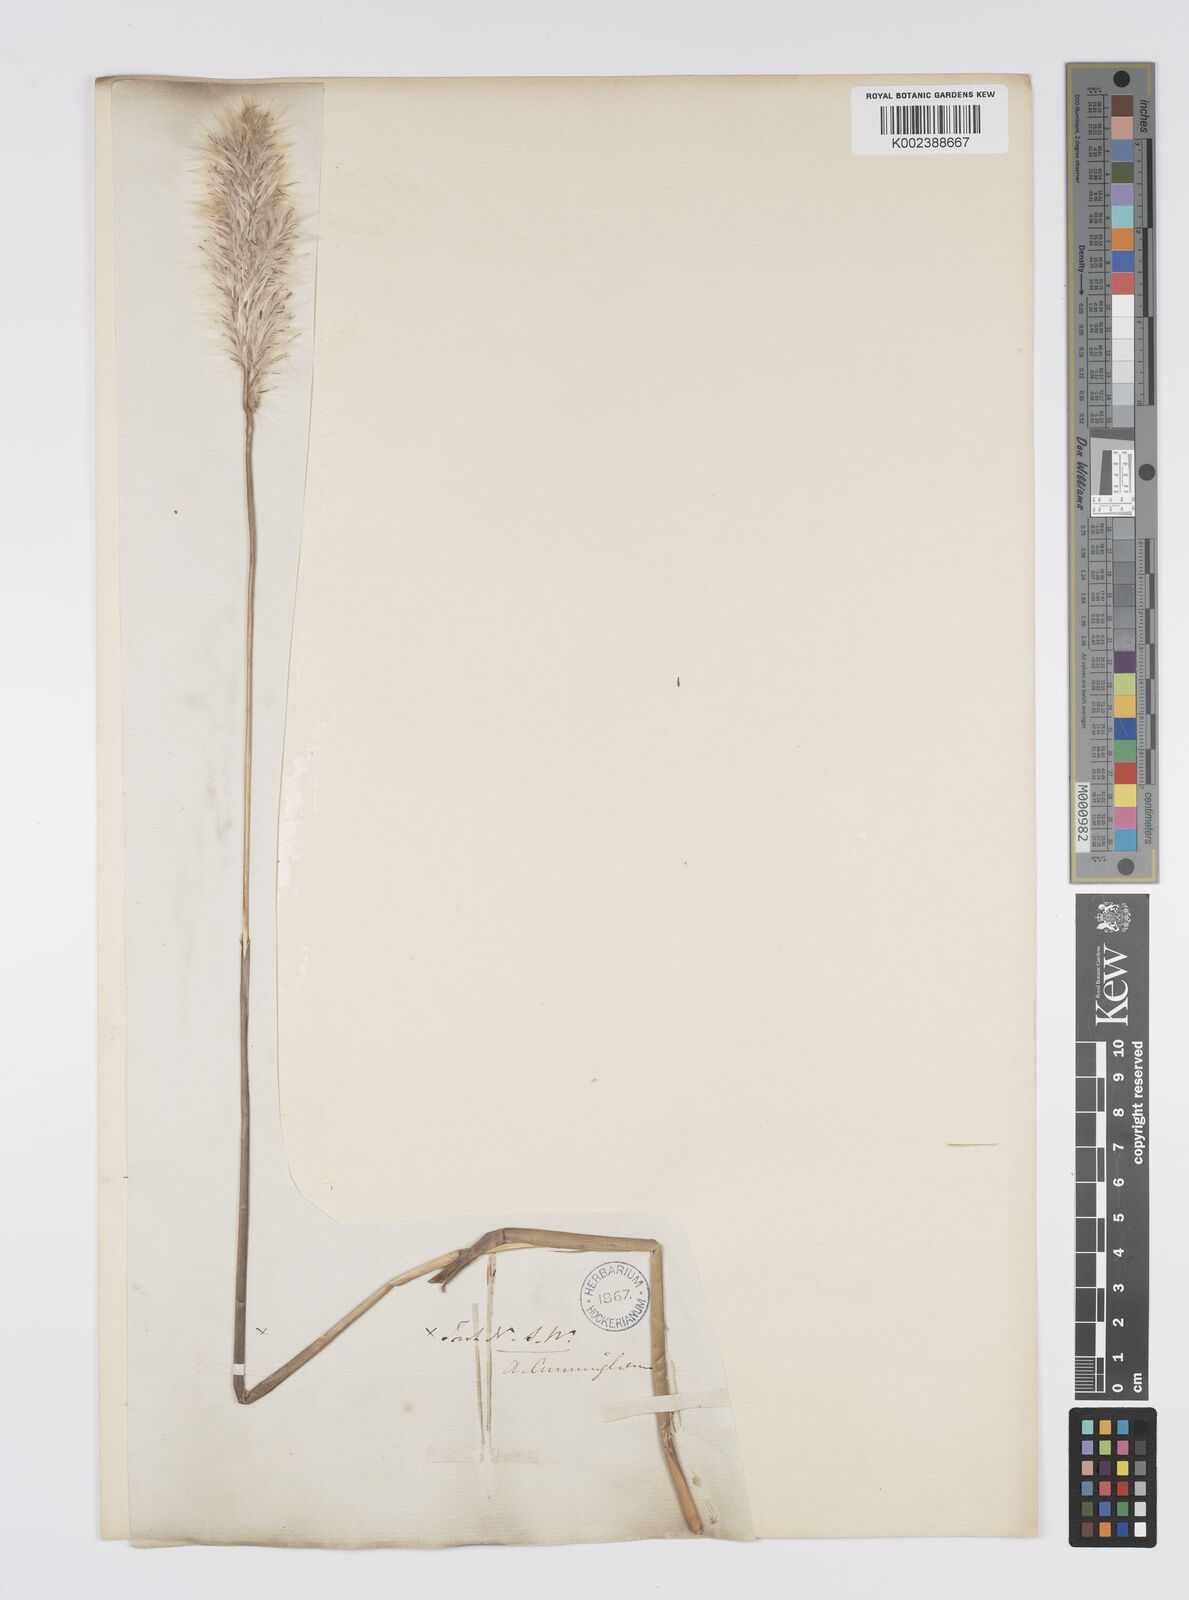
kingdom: Plantae
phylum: Tracheophyta
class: Liliopsida
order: Poales
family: Poaceae
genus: Imperata
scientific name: Imperata cylindrica
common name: Cogongrass
